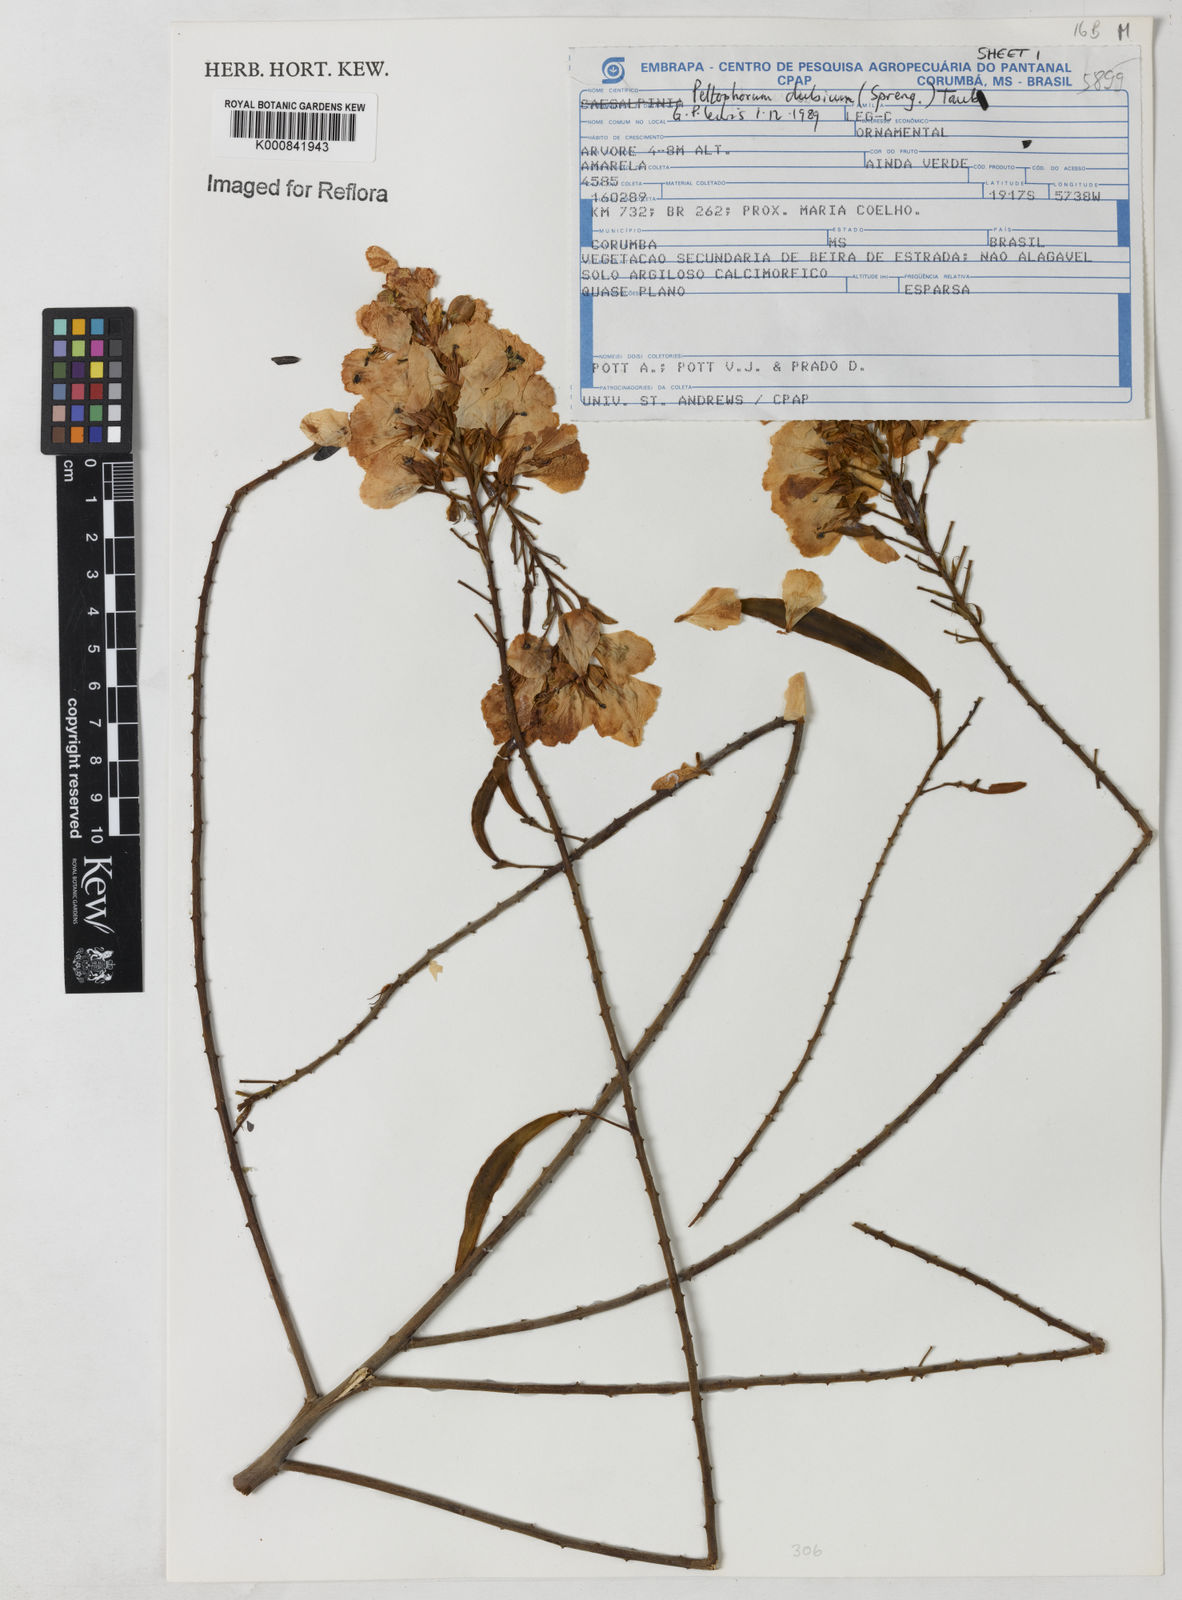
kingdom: Plantae
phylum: Tracheophyta
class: Magnoliopsida
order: Fabales
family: Fabaceae
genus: Peltophorum
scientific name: Peltophorum dubium
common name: Horsebush
